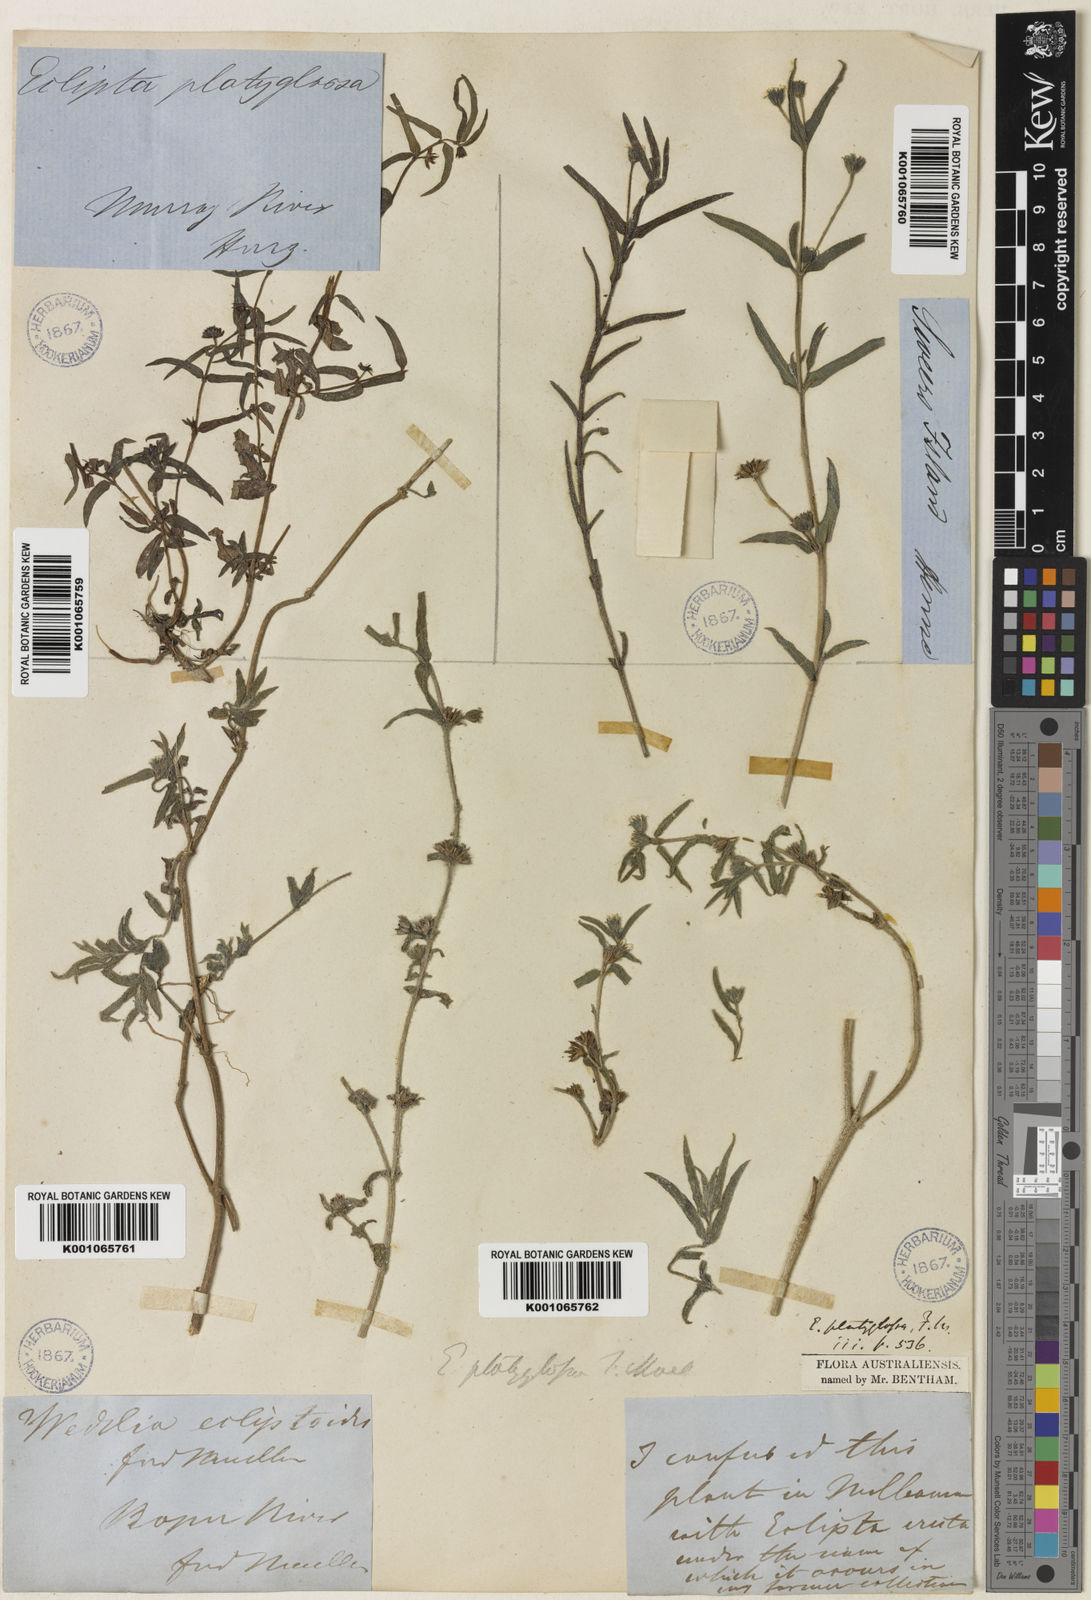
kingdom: Plantae
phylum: Tracheophyta
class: Magnoliopsida
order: Asterales
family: Asteraceae
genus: Eclipta
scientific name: Eclipta platyglossa
